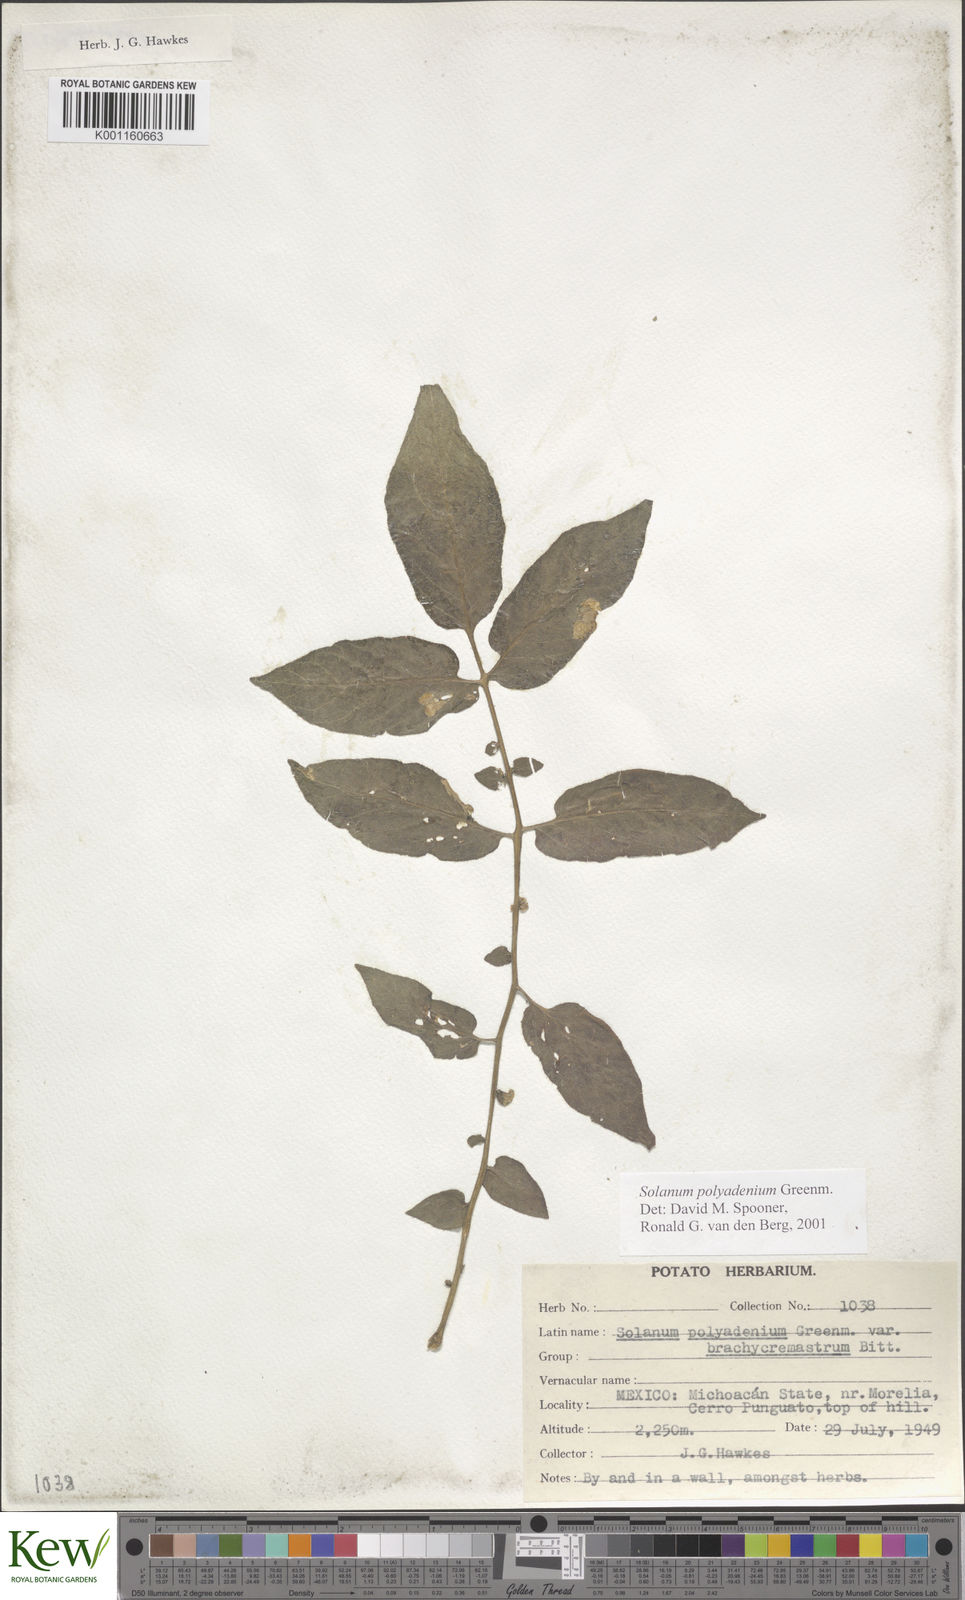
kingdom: Plantae
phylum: Tracheophyta
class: Magnoliopsida
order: Solanales
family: Solanaceae
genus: Solanum
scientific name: Solanum polyadenium
